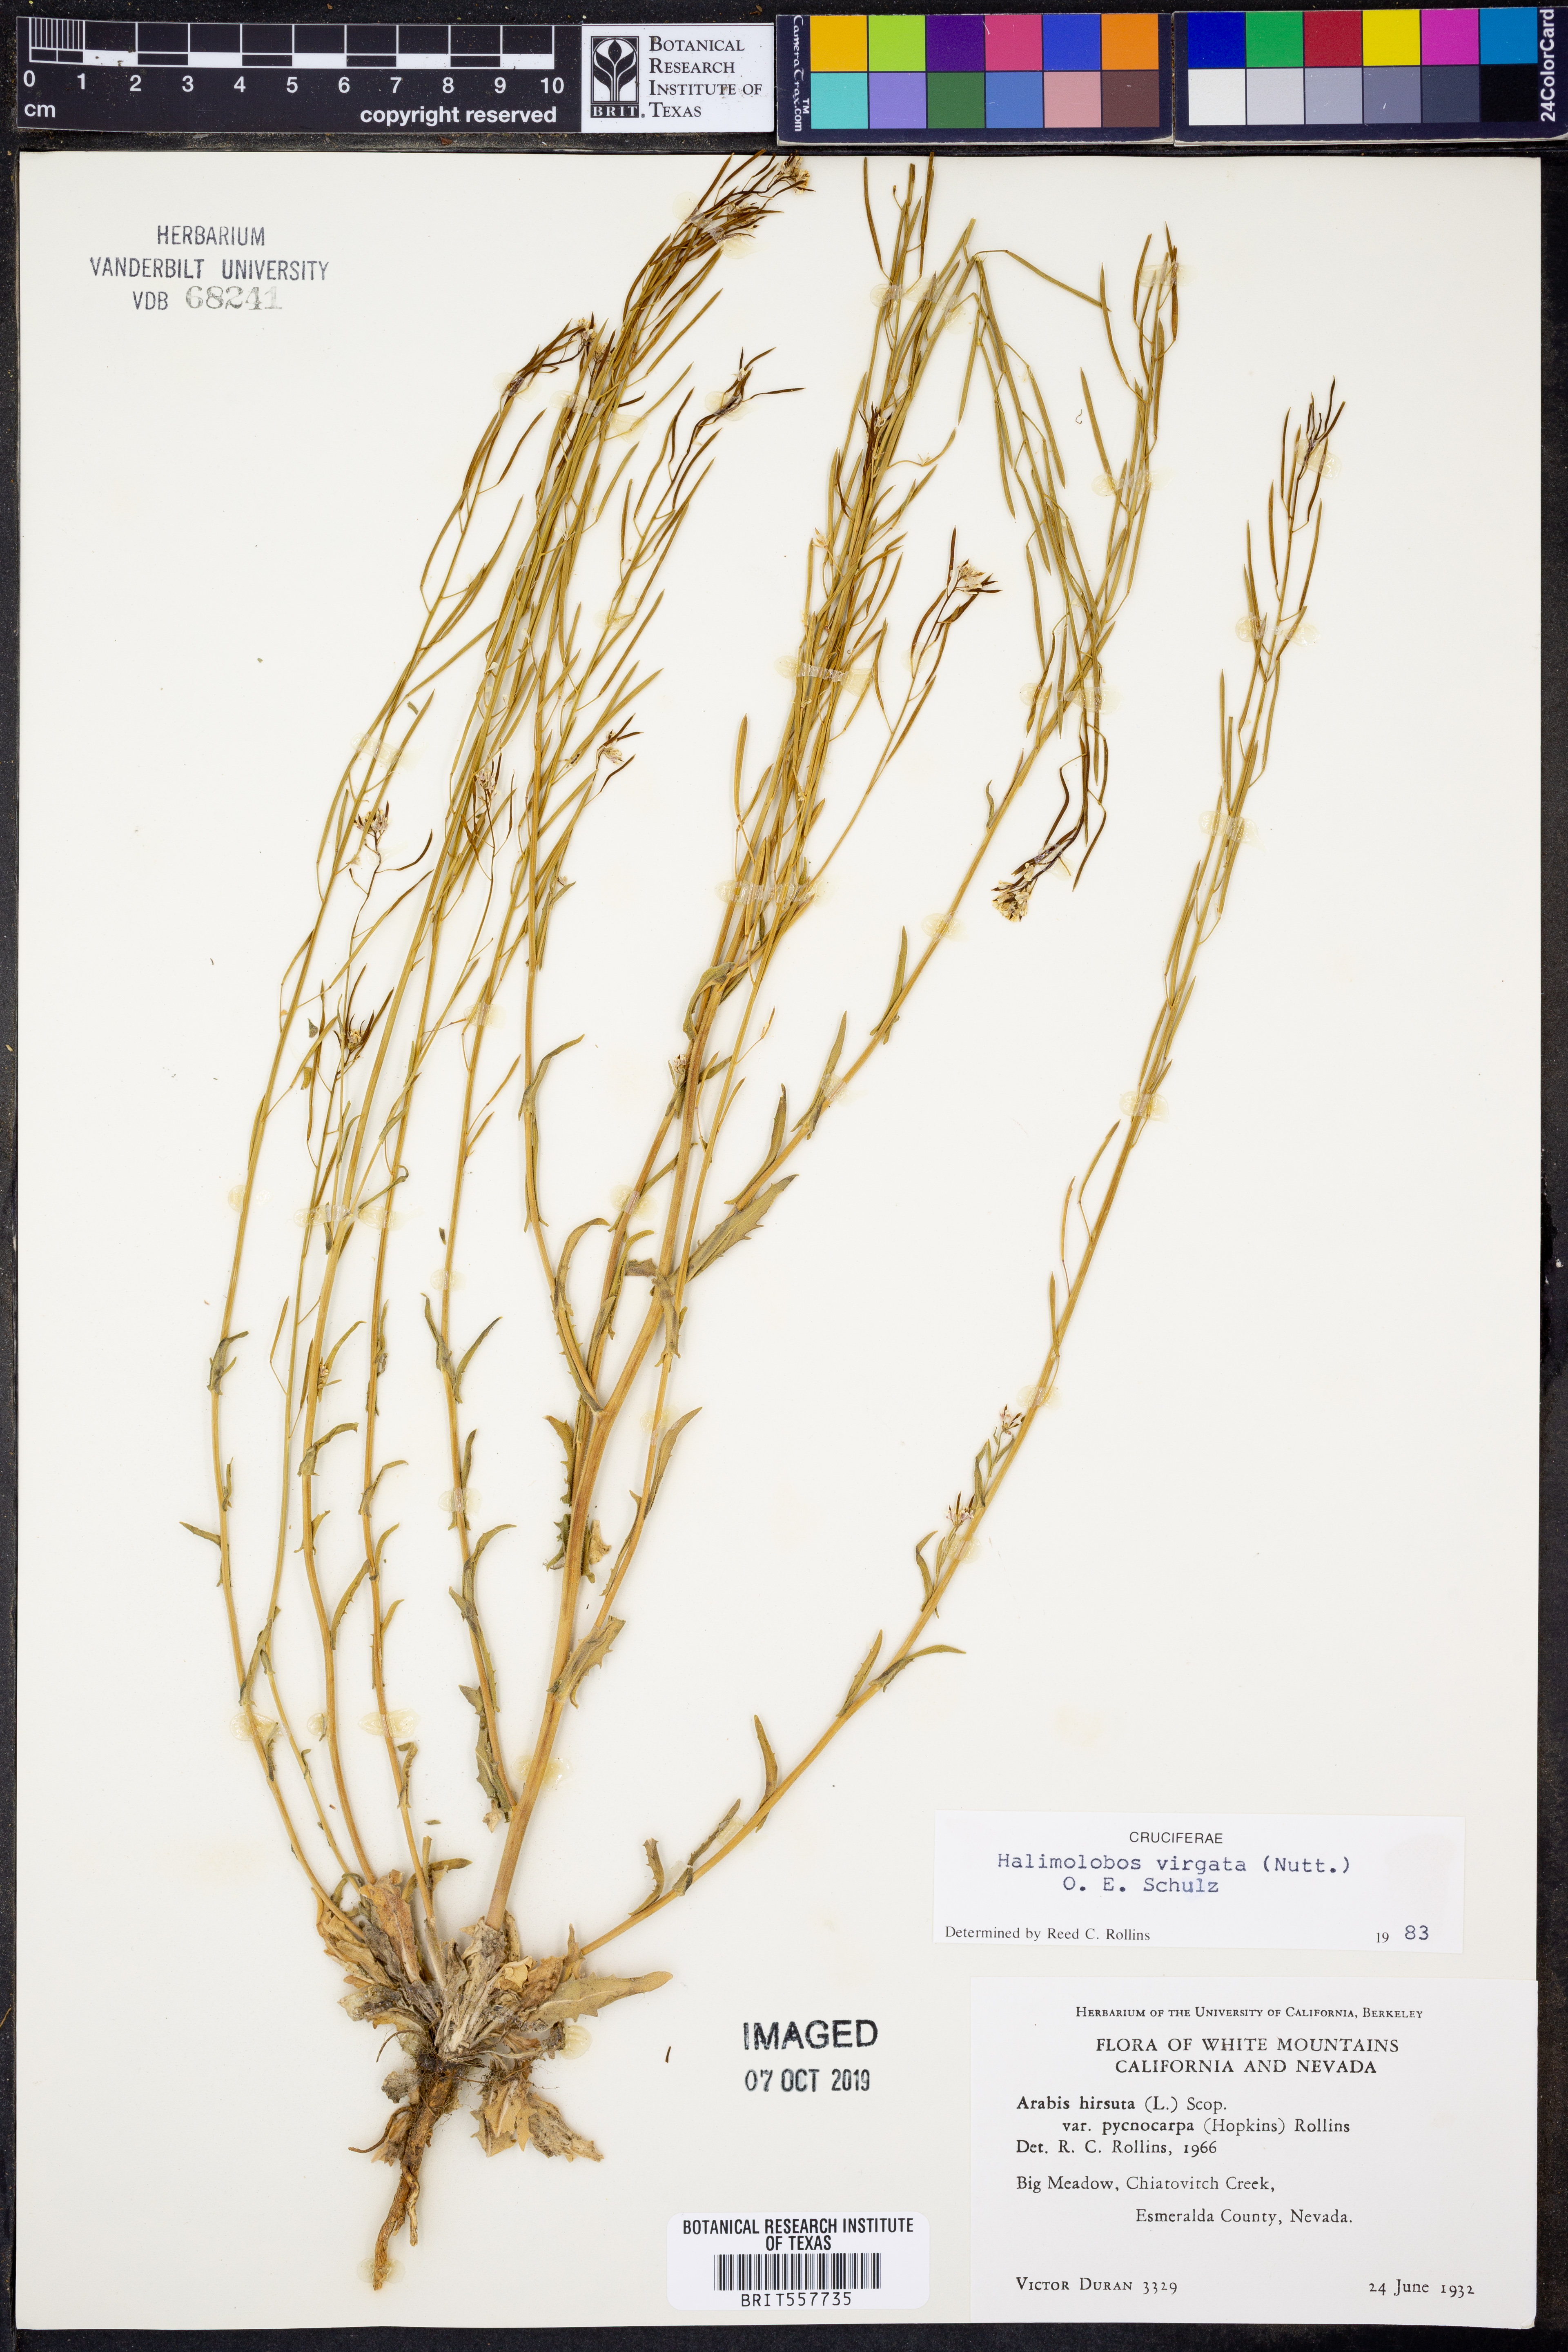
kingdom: Plantae
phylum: Tracheophyta
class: Magnoliopsida
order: Brassicales
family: Brassicaceae
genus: Crucihimalaya
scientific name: Crucihimalaya virgata
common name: Rod halimolobos
